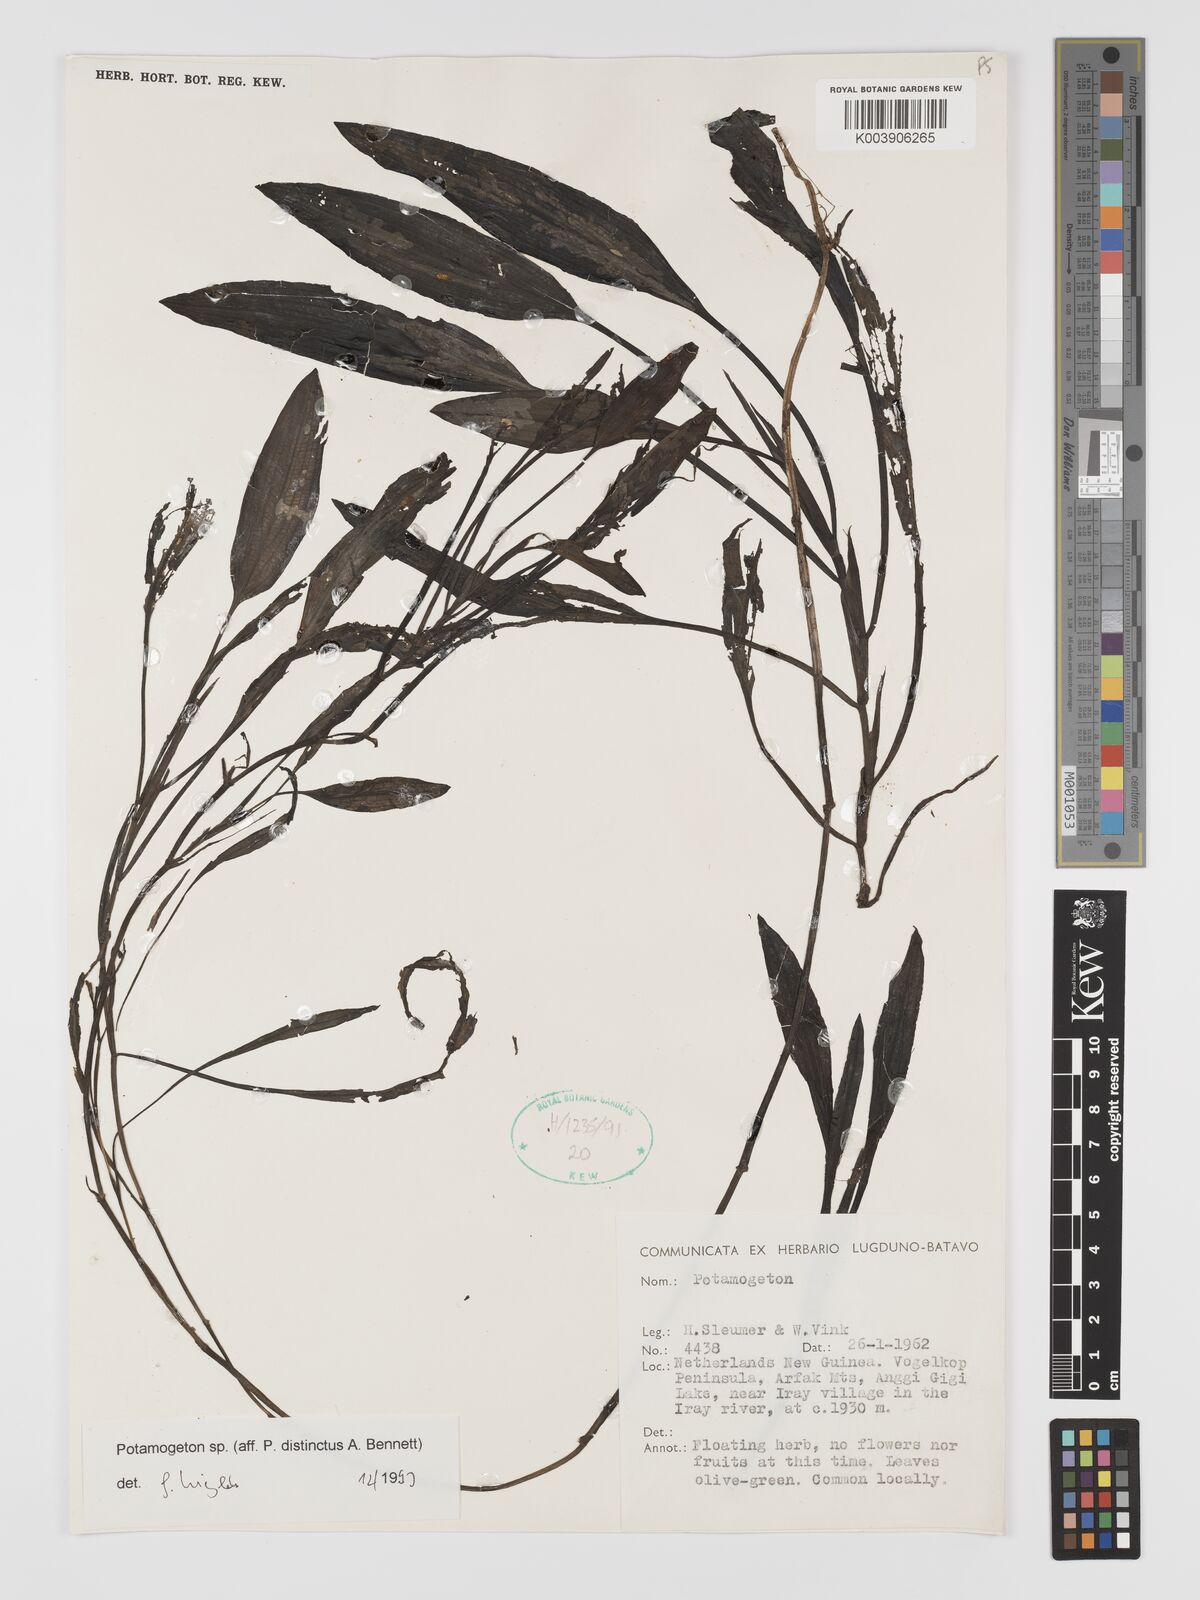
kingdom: Plantae
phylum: Tracheophyta
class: Liliopsida
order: Alismatales
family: Potamogetonaceae
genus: Potamogeton
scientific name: Potamogeton
